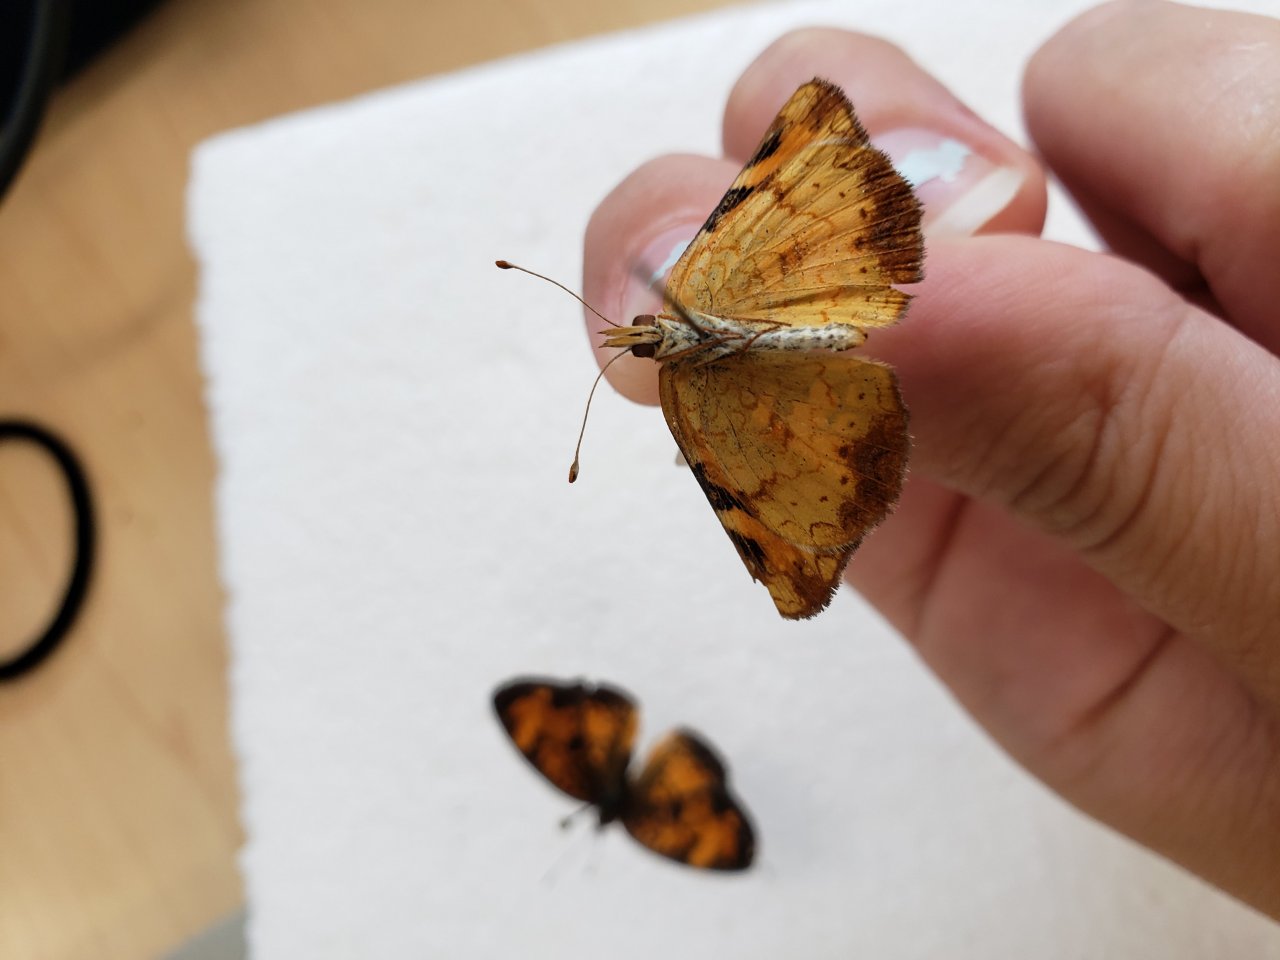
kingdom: Animalia
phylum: Arthropoda
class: Insecta
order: Lepidoptera
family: Nymphalidae
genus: Phyciodes
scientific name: Phyciodes tharos
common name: Northern Crescent
